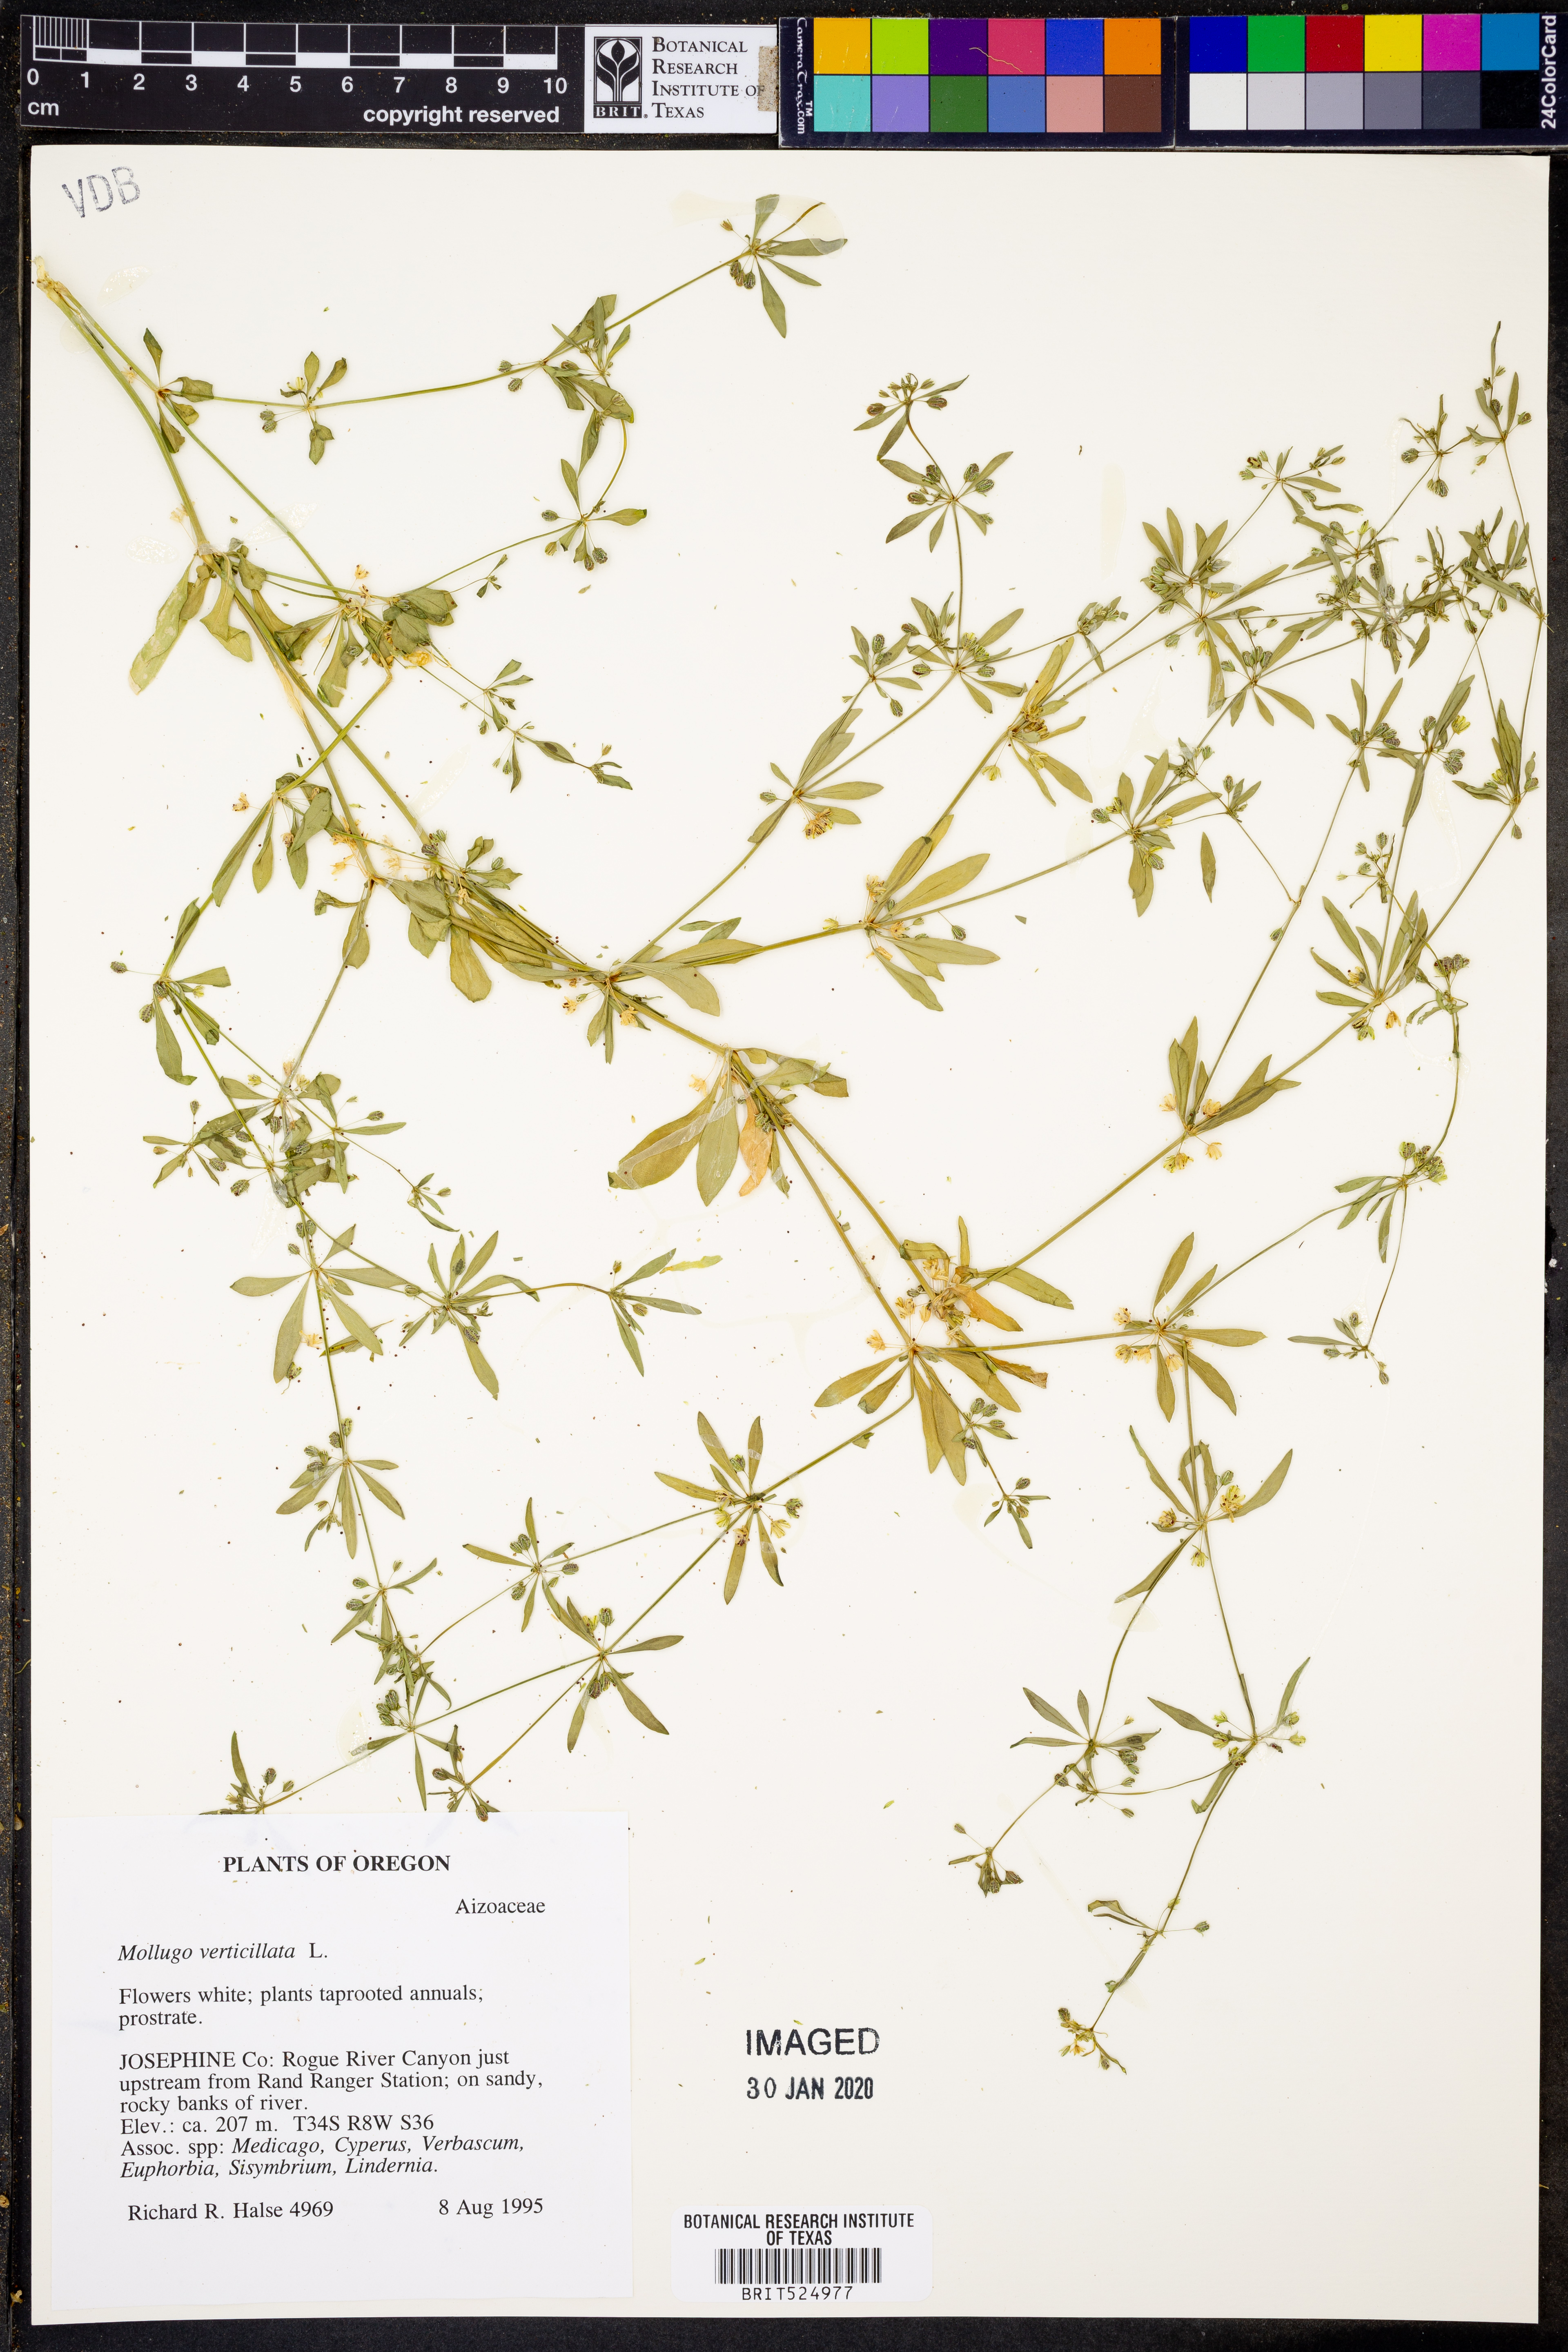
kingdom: Plantae
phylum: Tracheophyta
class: Magnoliopsida
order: Caryophyllales
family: Molluginaceae
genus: Mollugo
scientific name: Mollugo verticillata
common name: Green carpetweed
